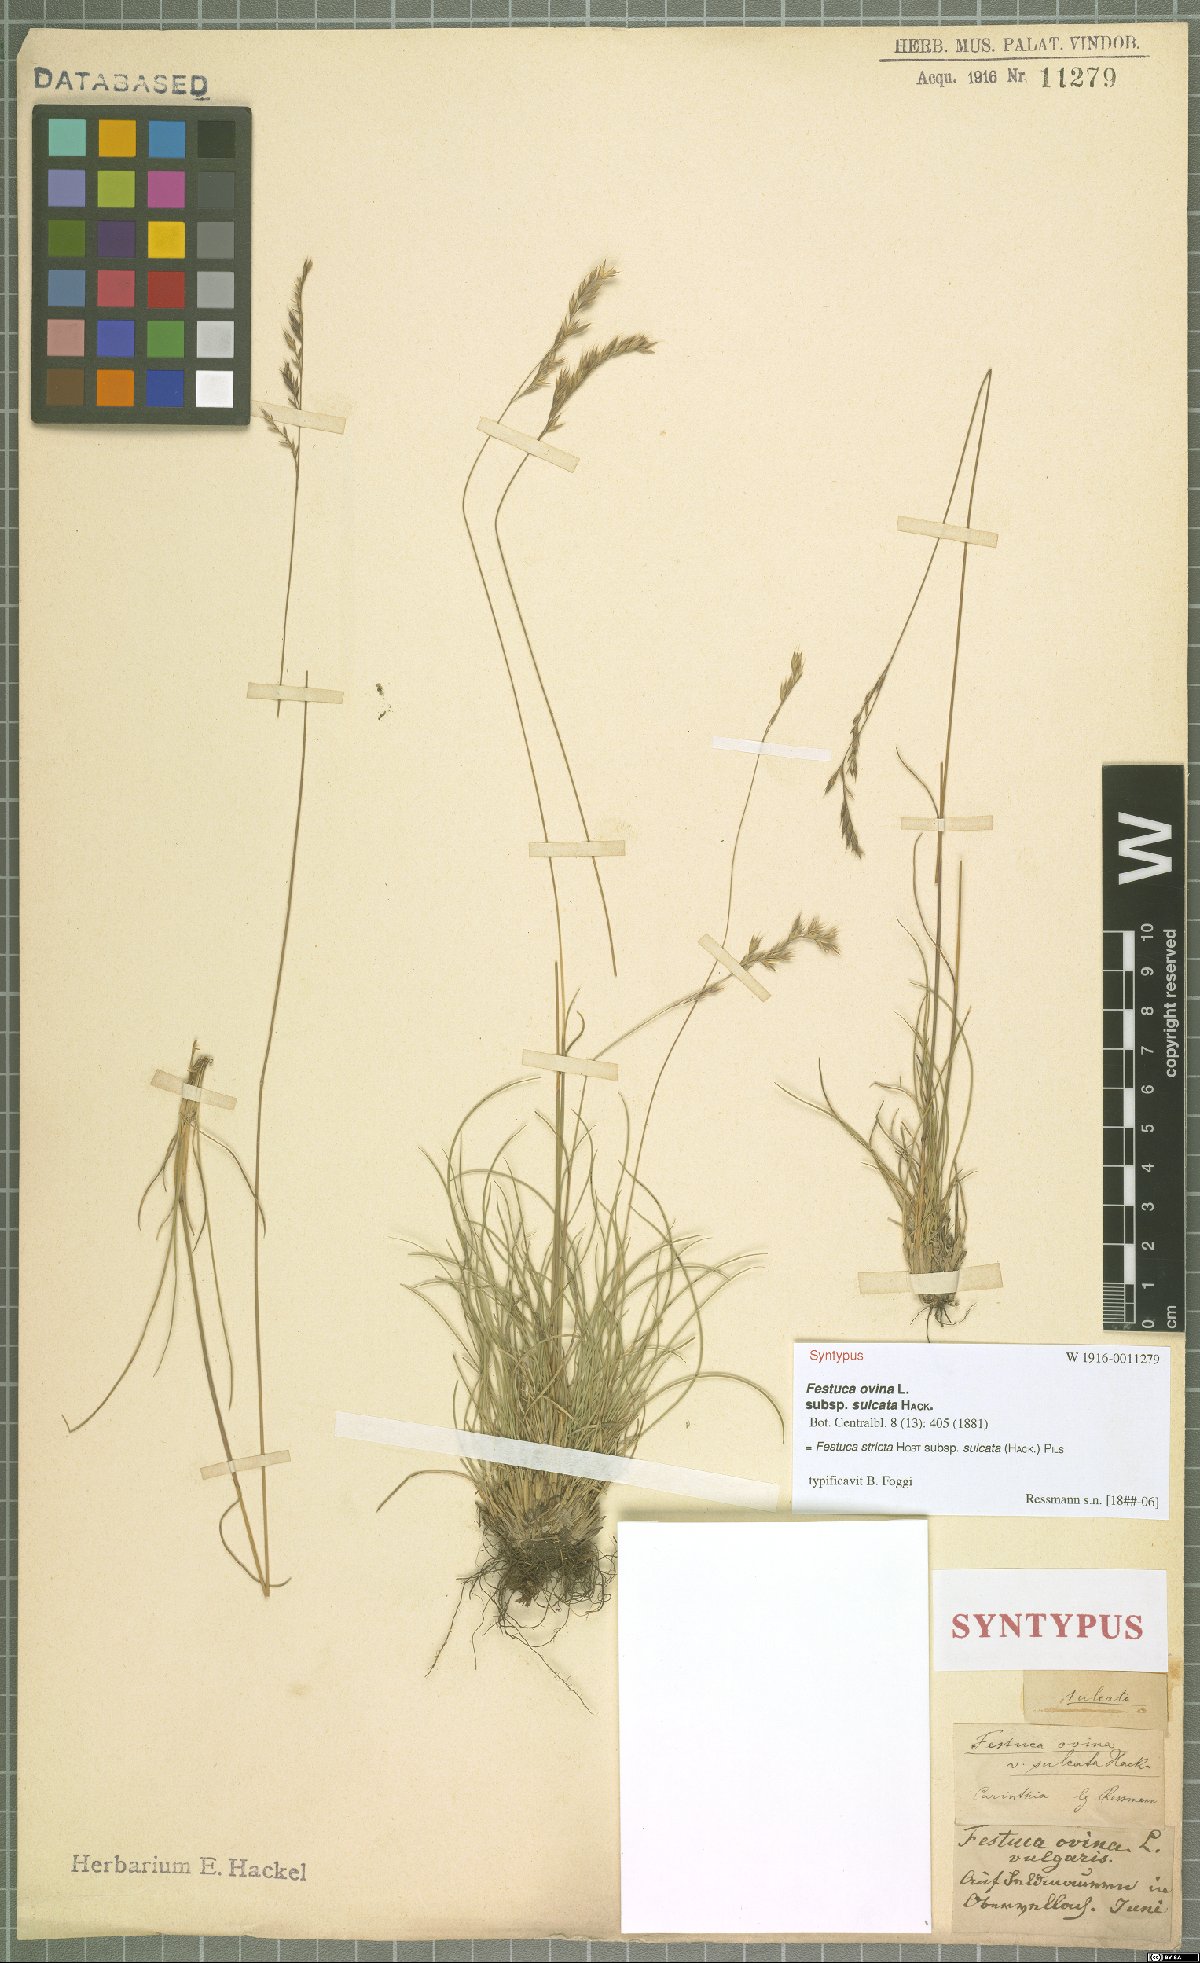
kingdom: Plantae
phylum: Tracheophyta
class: Liliopsida
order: Poales
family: Poaceae
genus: Festuca
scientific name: Festuca rupicola
